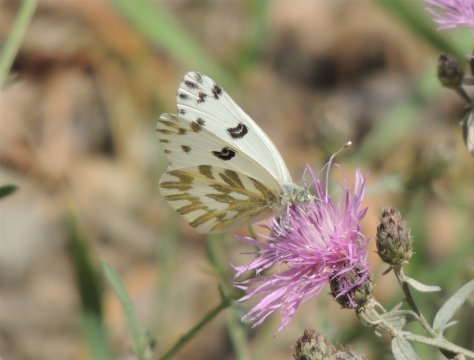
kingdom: Animalia
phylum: Arthropoda
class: Insecta
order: Lepidoptera
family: Pieridae
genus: Pontia
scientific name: Pontia beckerii
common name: Becker's White
